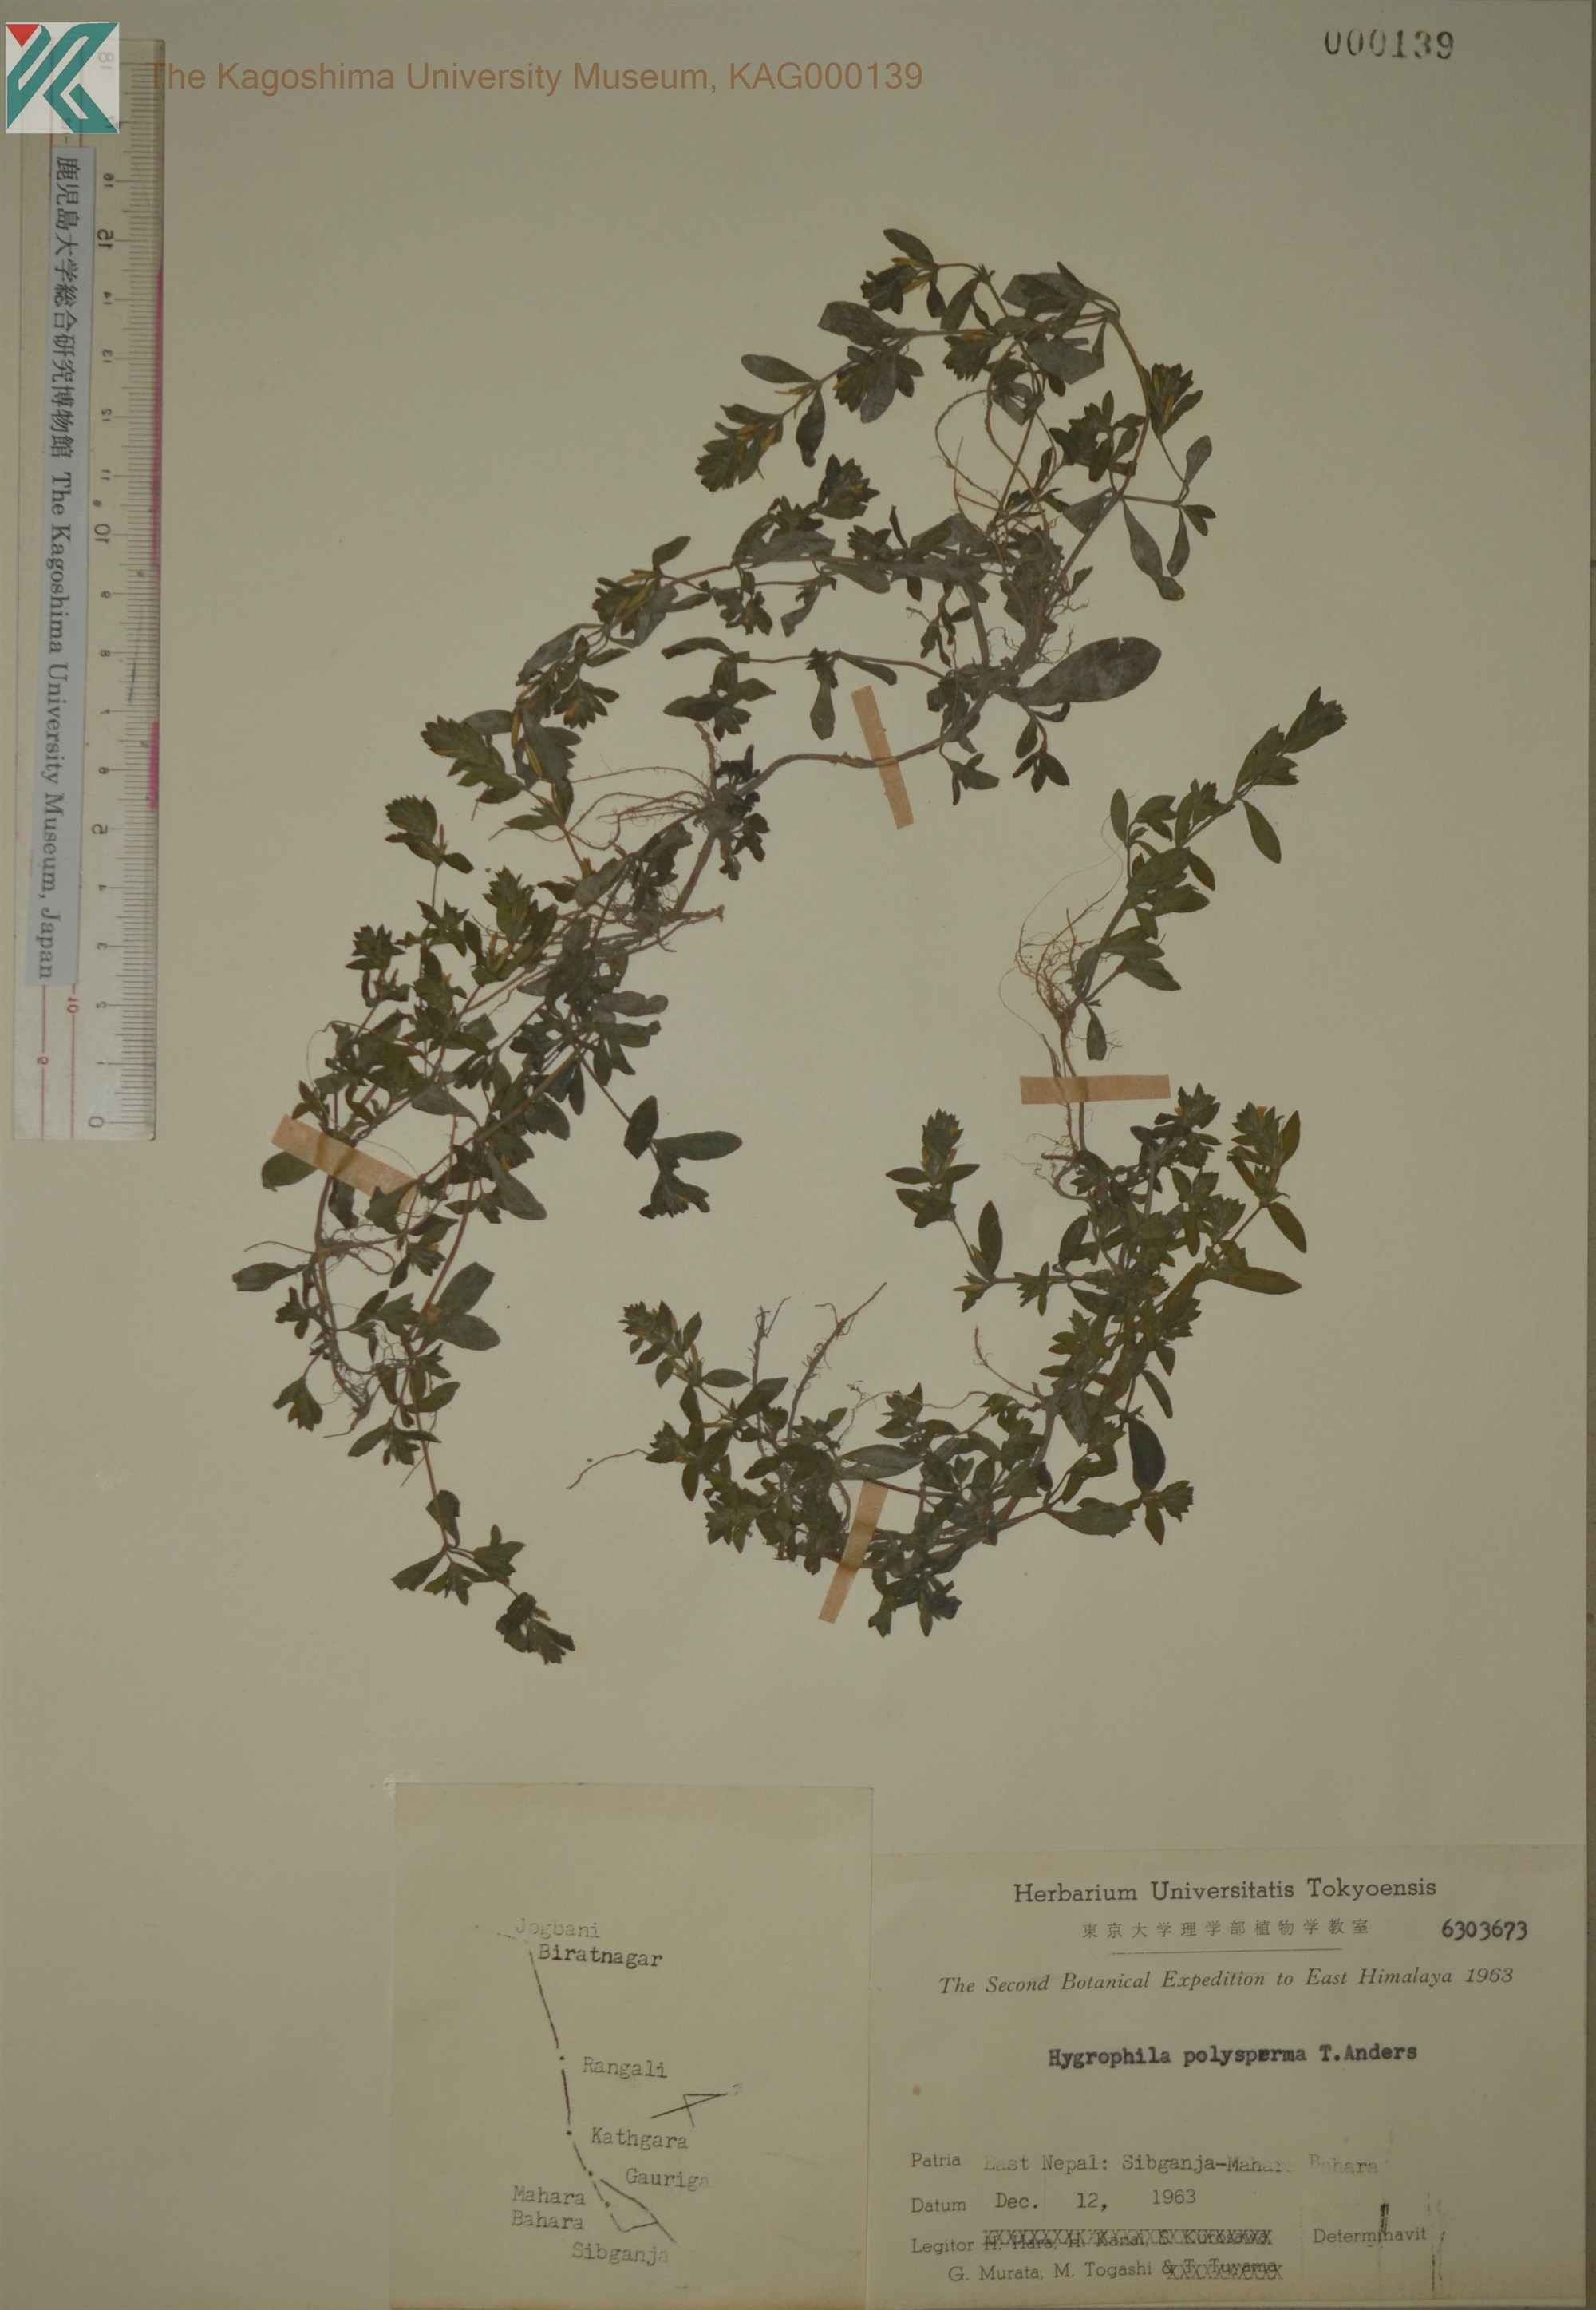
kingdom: Plantae
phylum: Tracheophyta
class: Magnoliopsida
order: Lamiales
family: Acanthaceae
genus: Hygrophila
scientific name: Hygrophila polysperma
